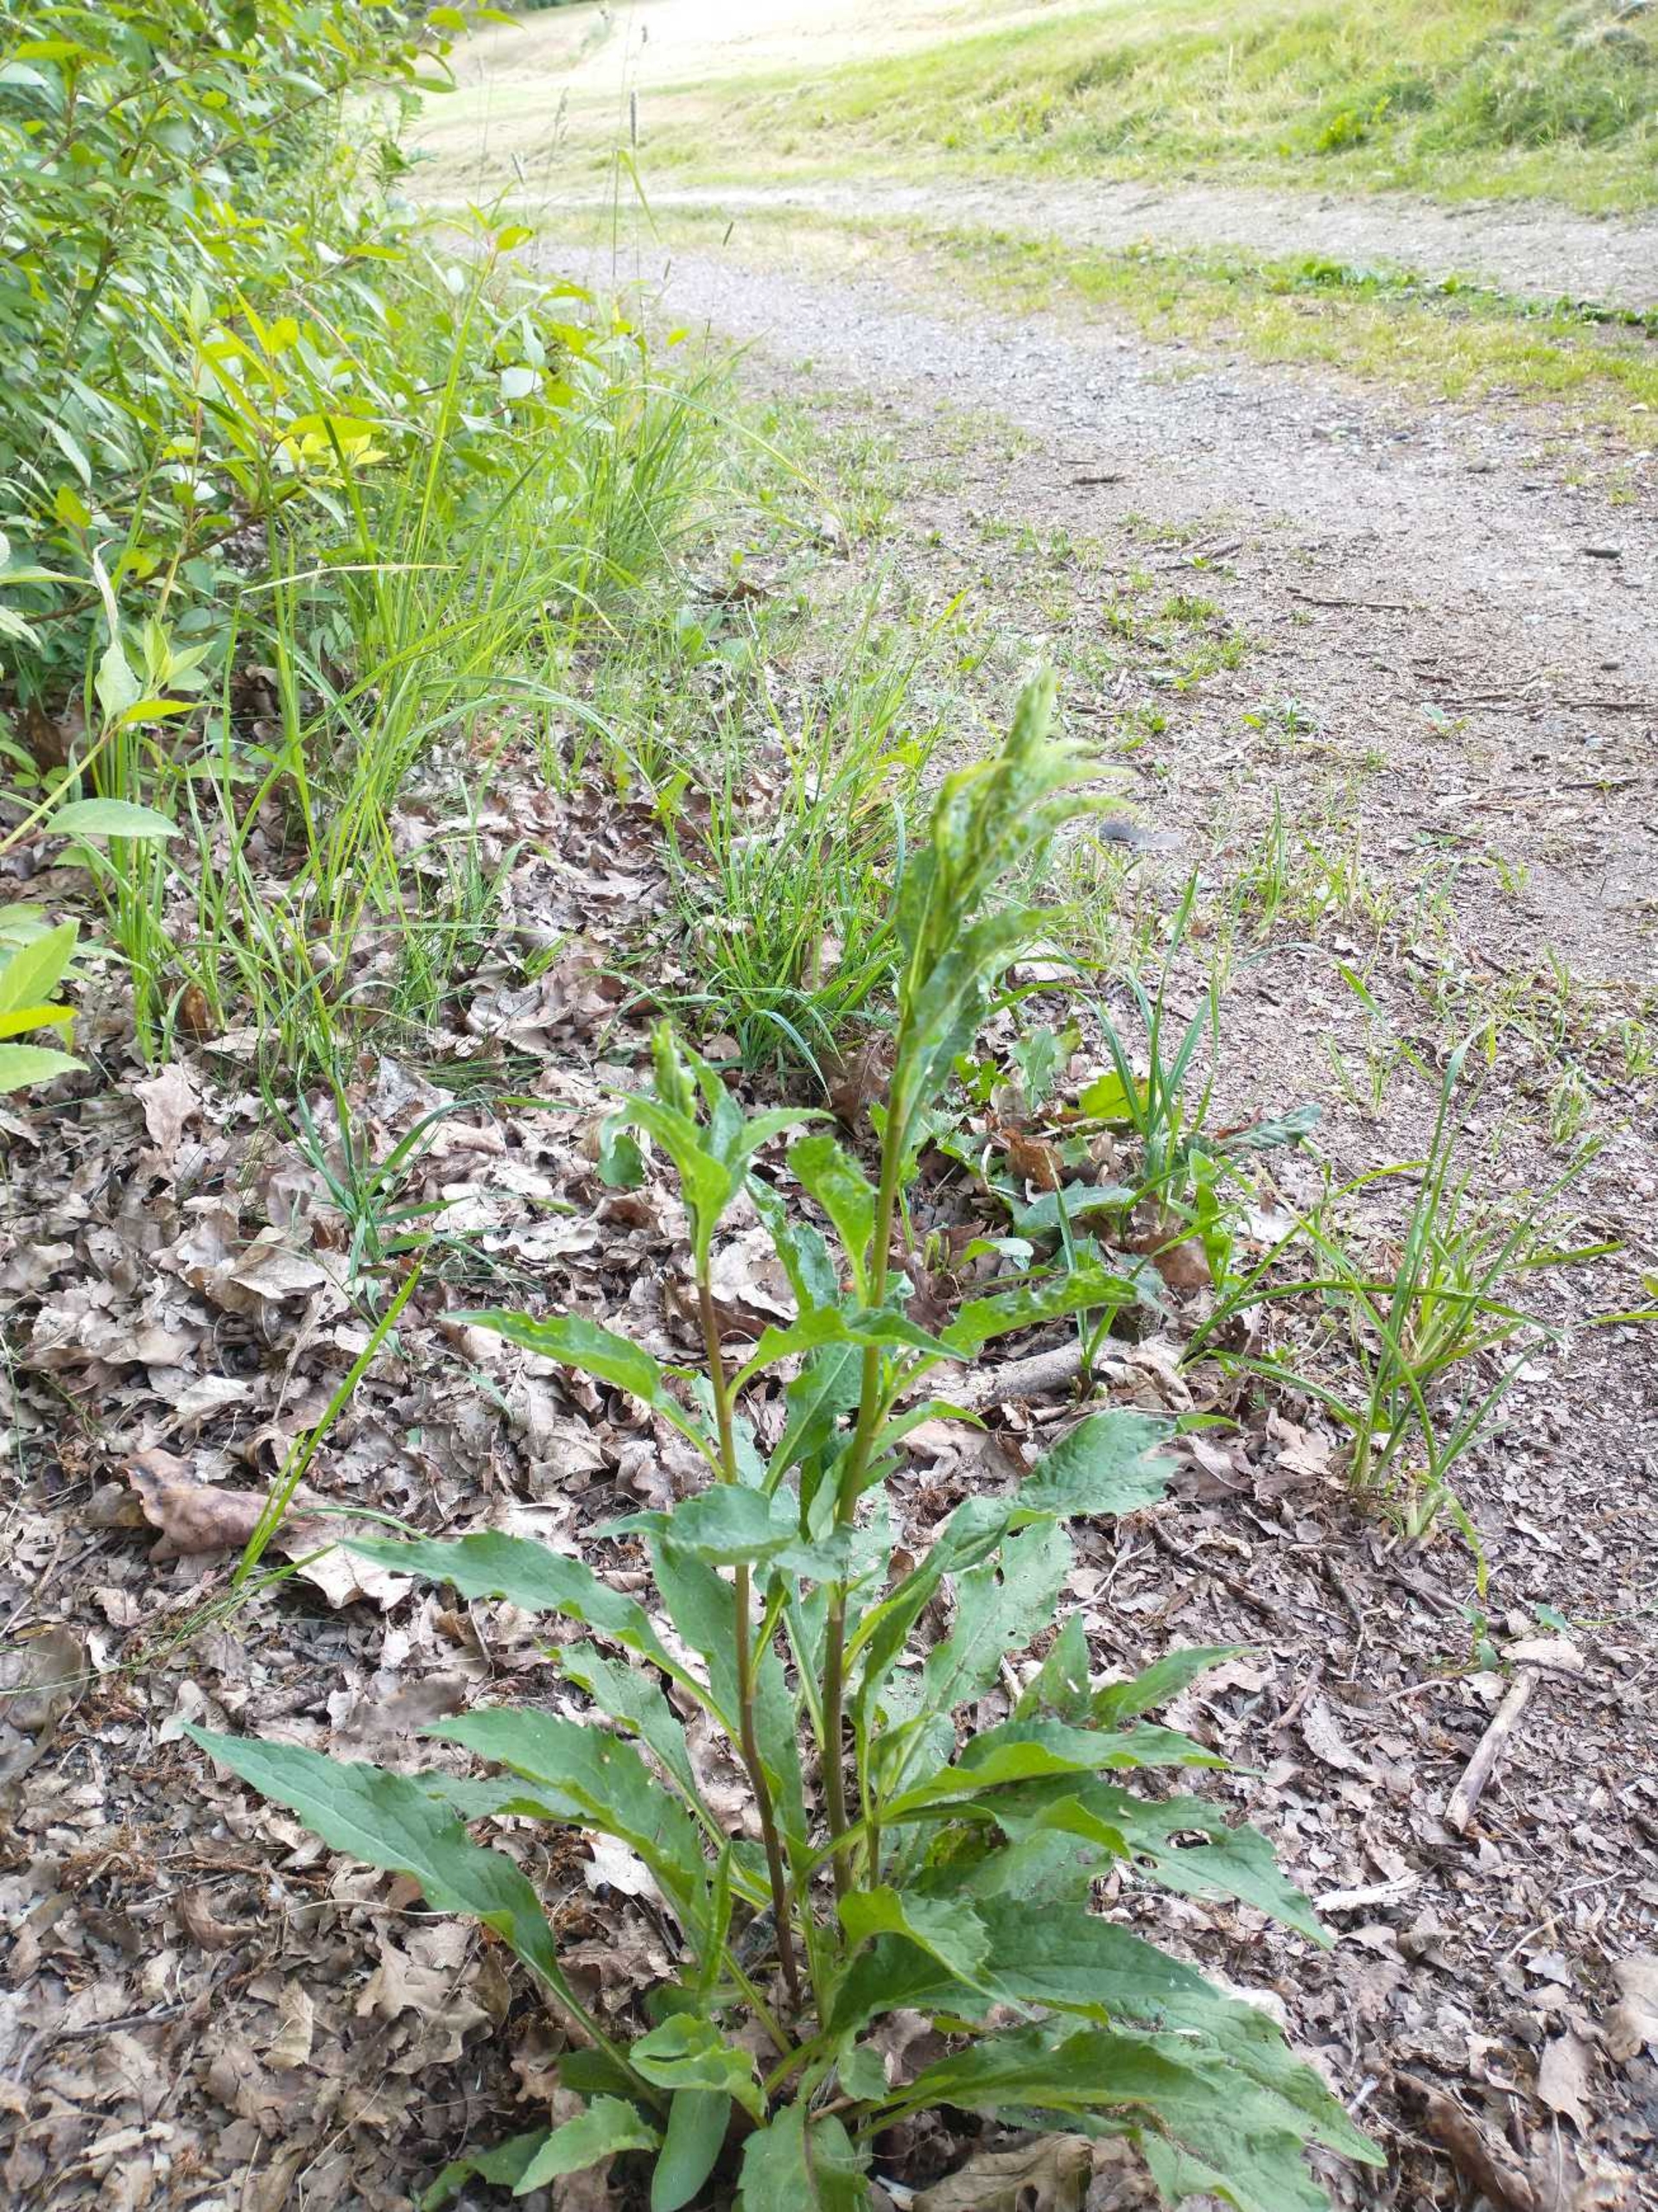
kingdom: Plantae
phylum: Tracheophyta
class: Magnoliopsida
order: Asterales
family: Asteraceae
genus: Solidago
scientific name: Solidago virgaurea
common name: Almindelig gyldenris
